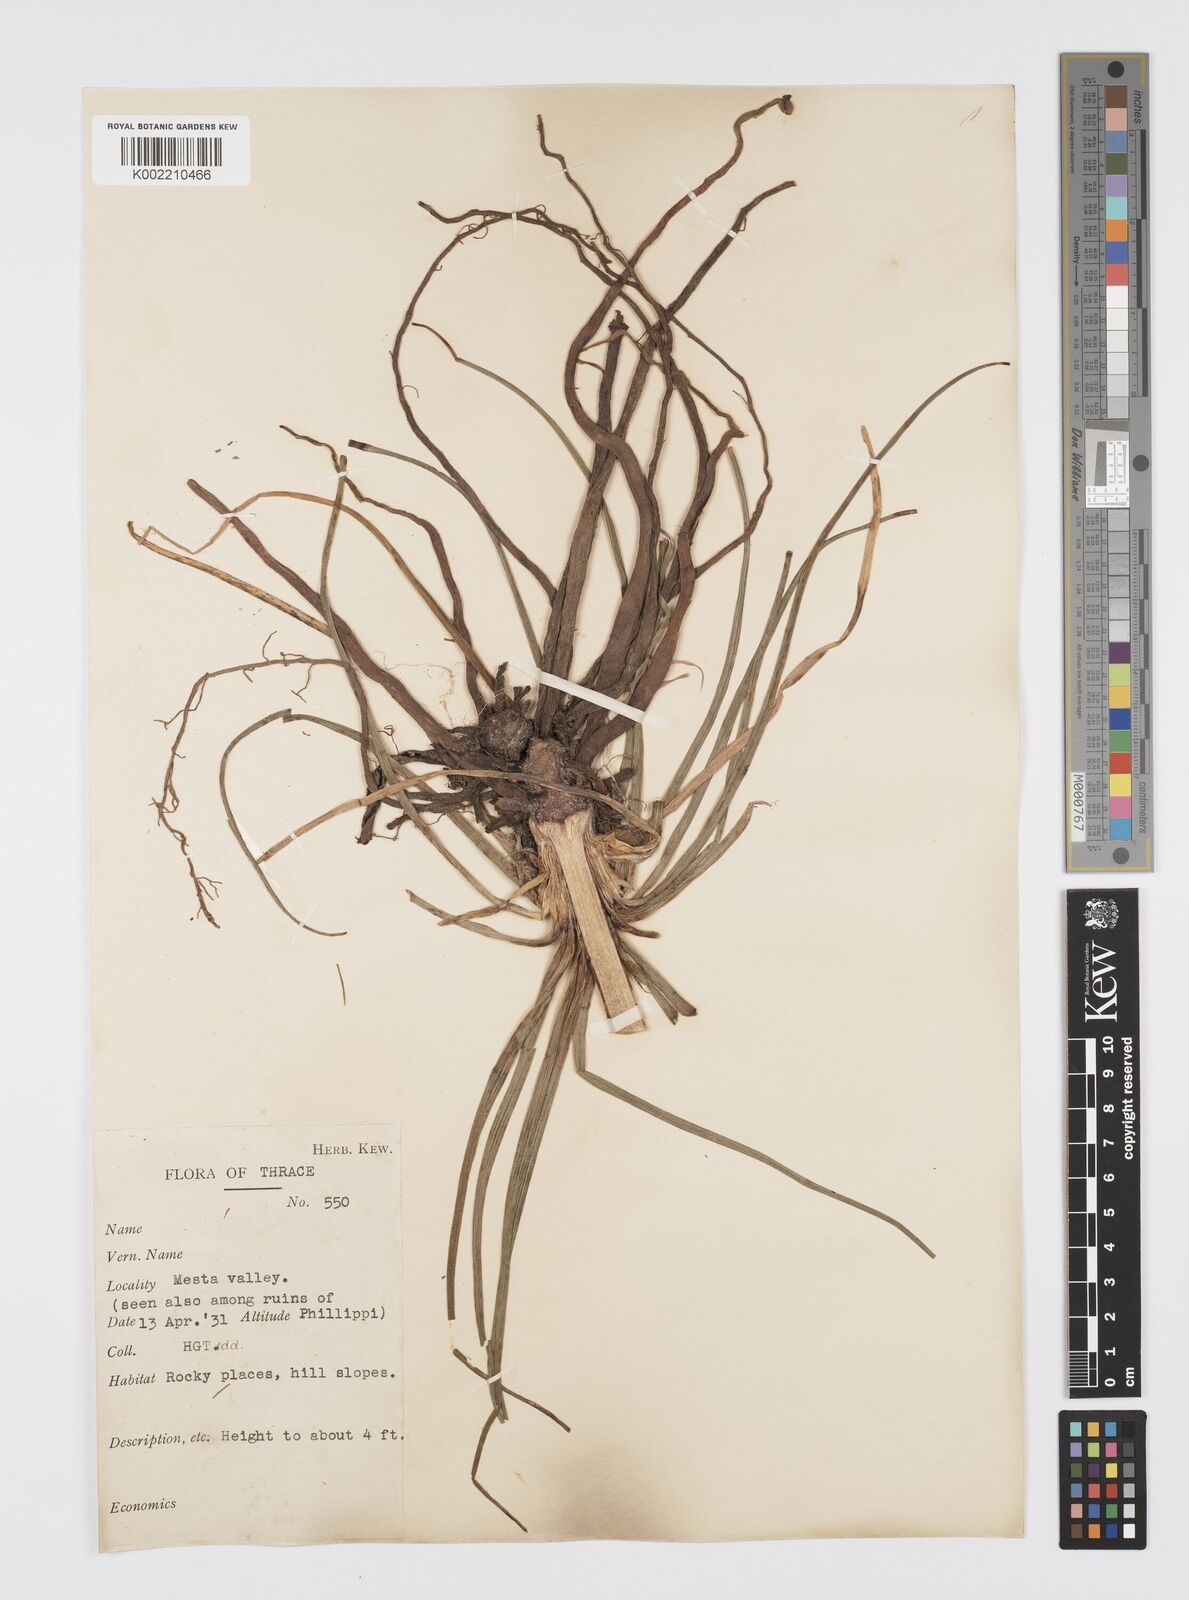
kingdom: Plantae
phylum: Tracheophyta
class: Liliopsida
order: Asparagales
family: Asphodelaceae
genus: Asphodeline
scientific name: Asphodeline lutea
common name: Yellow asphodel
